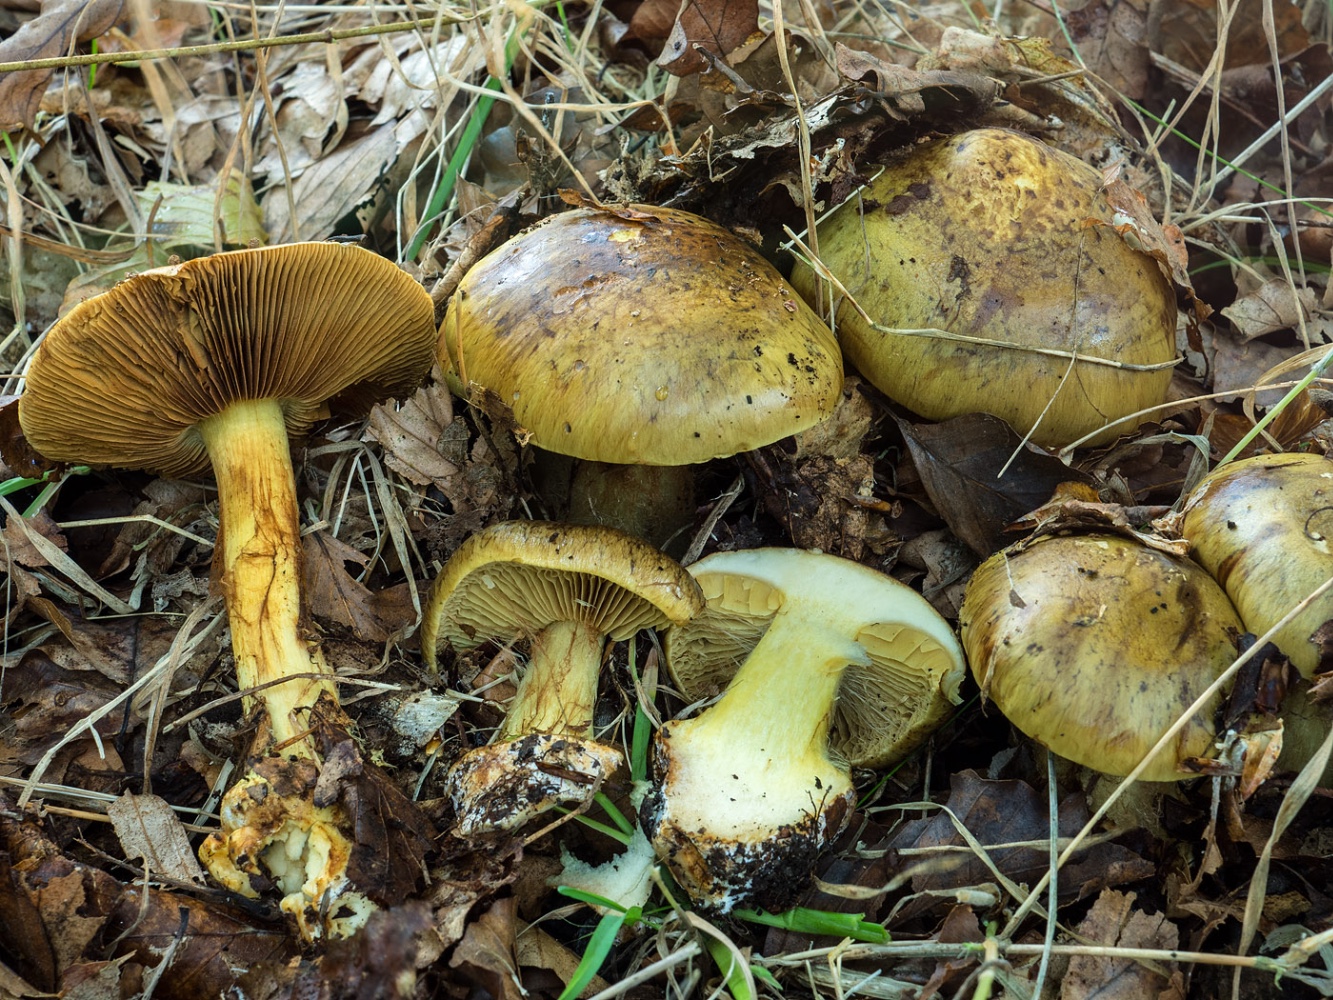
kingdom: Fungi
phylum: Basidiomycota
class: Agaricomycetes
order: Agaricales
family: Cortinariaceae
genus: Calonarius
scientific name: Calonarius xanthochlorus
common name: gulgrøn slørhat
